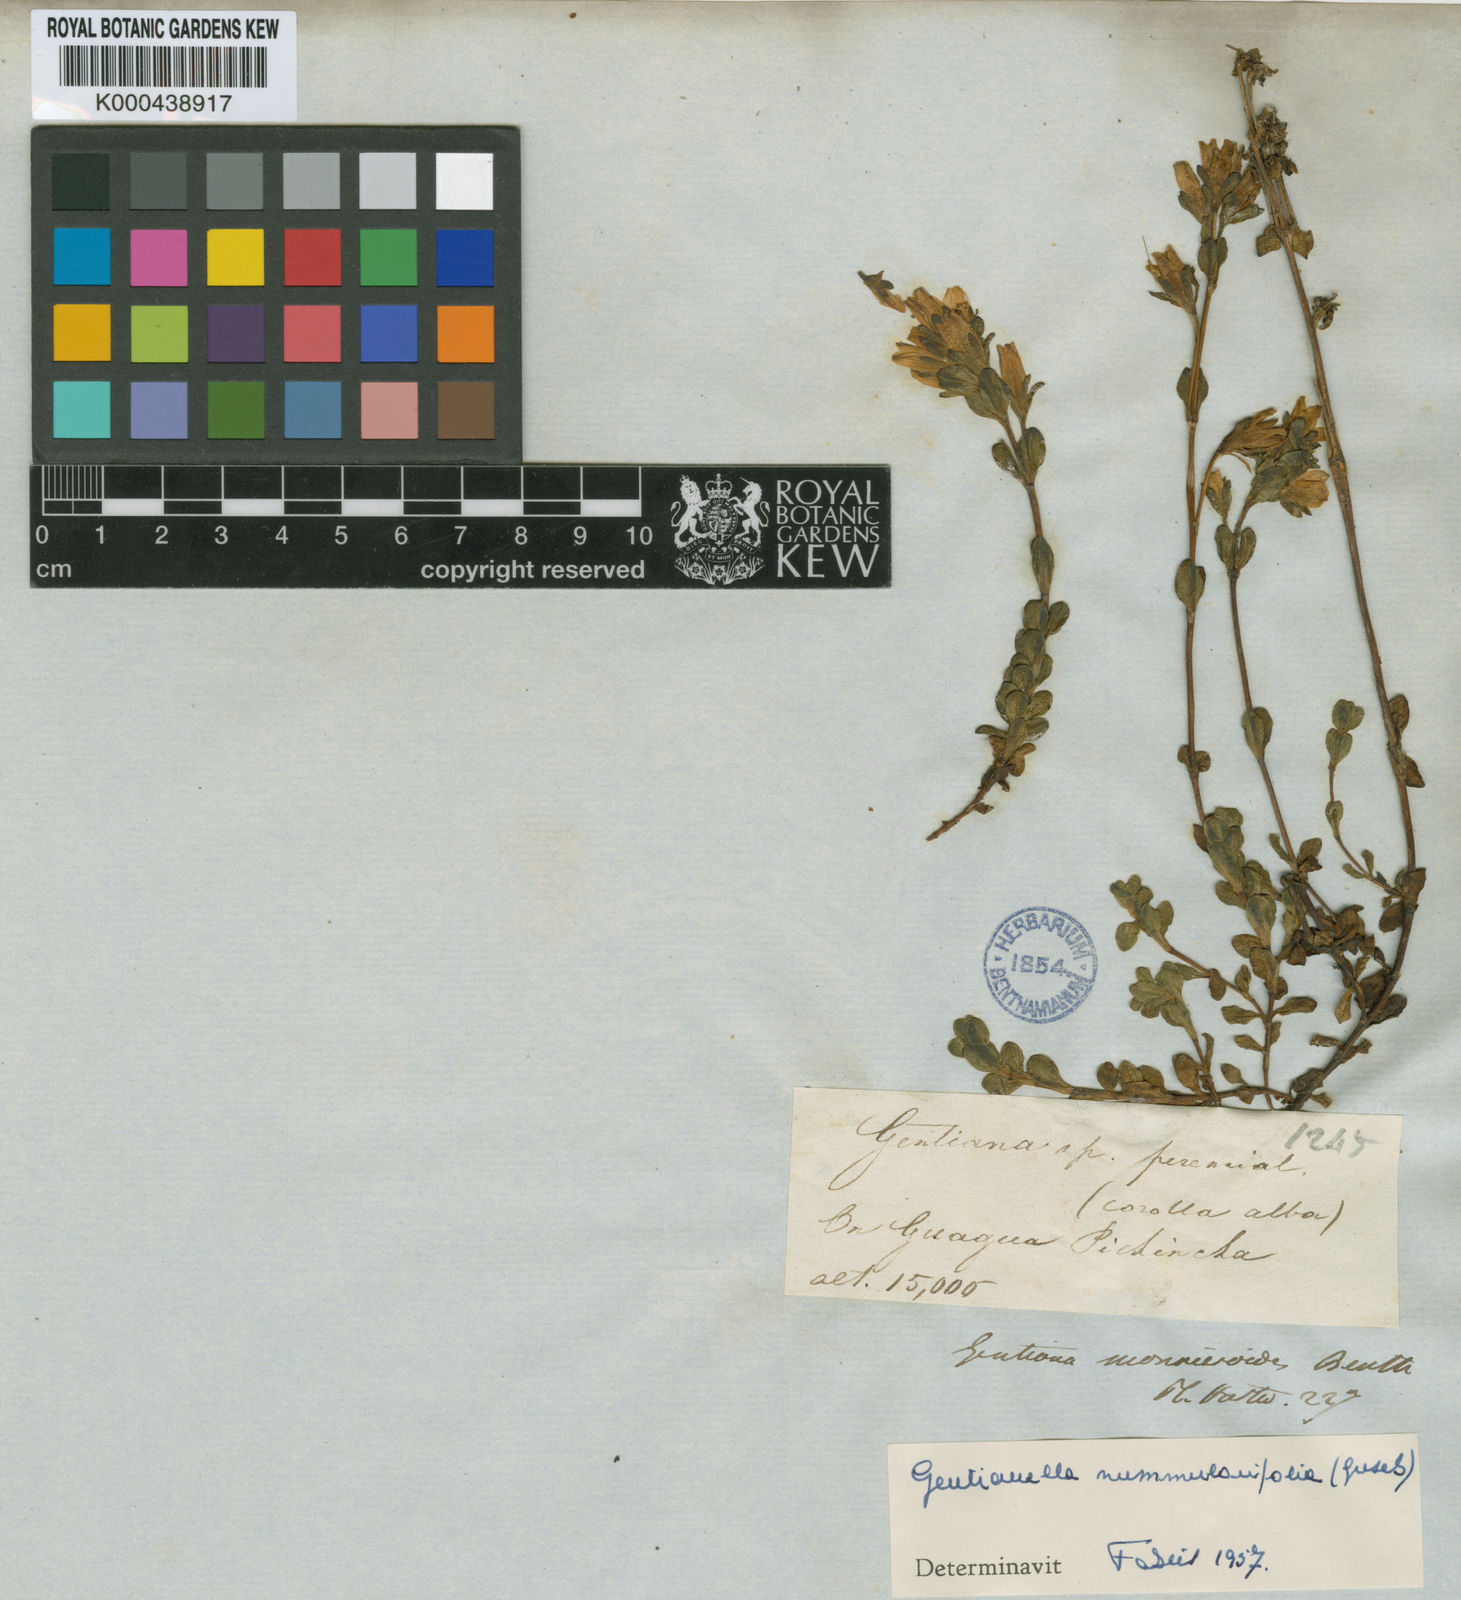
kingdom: Plantae
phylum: Tracheophyta
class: Magnoliopsida
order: Gentianales
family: Gentianaceae
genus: Gentianella
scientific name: Gentianella nummulariifolia
